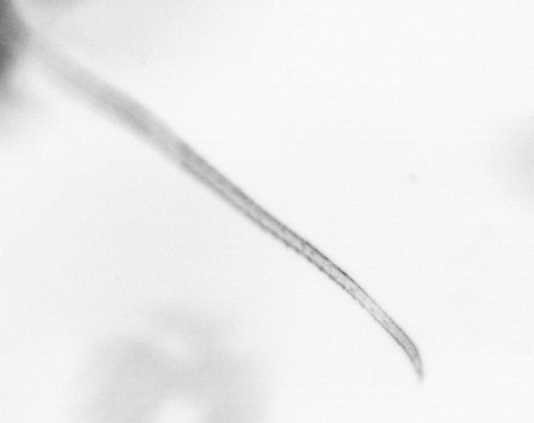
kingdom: Animalia
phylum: Arthropoda
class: Copepoda
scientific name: Copepoda
